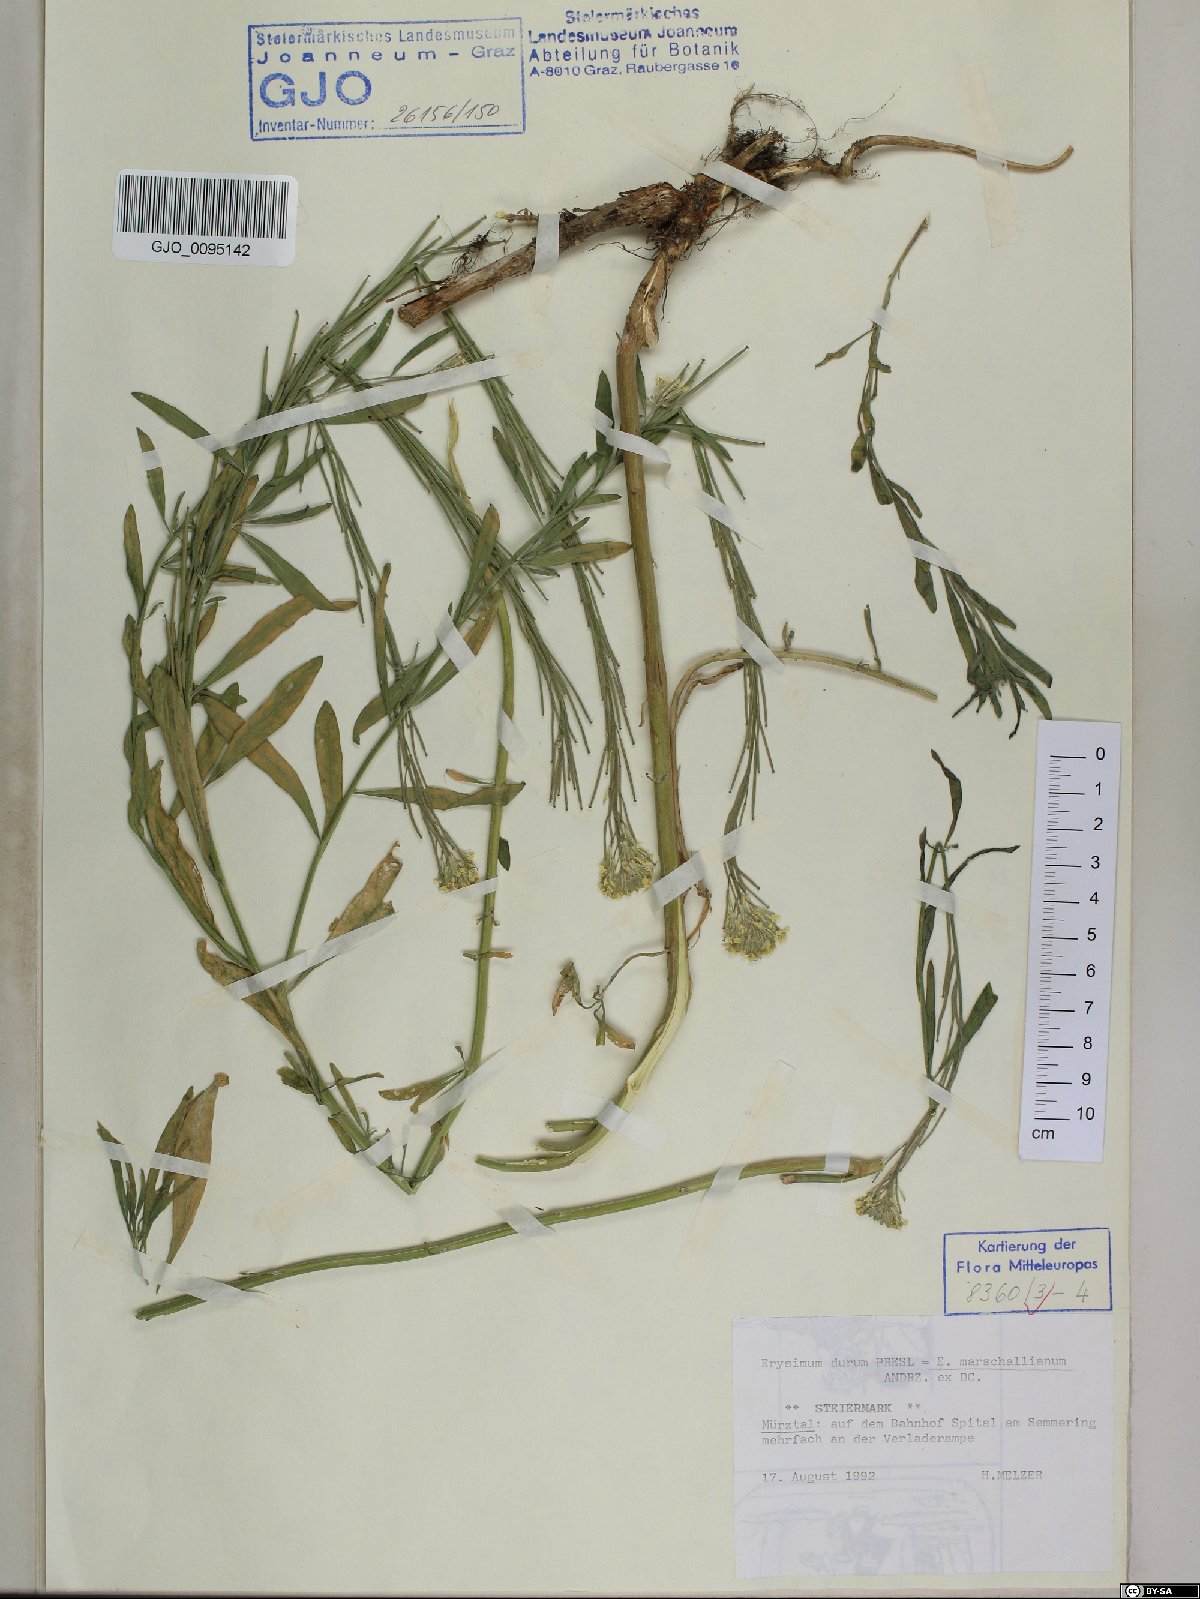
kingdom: Plantae
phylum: Tracheophyta
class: Magnoliopsida
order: Brassicales
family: Brassicaceae
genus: Erysimum
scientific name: Erysimum marschallianum
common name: Hard wallflower
